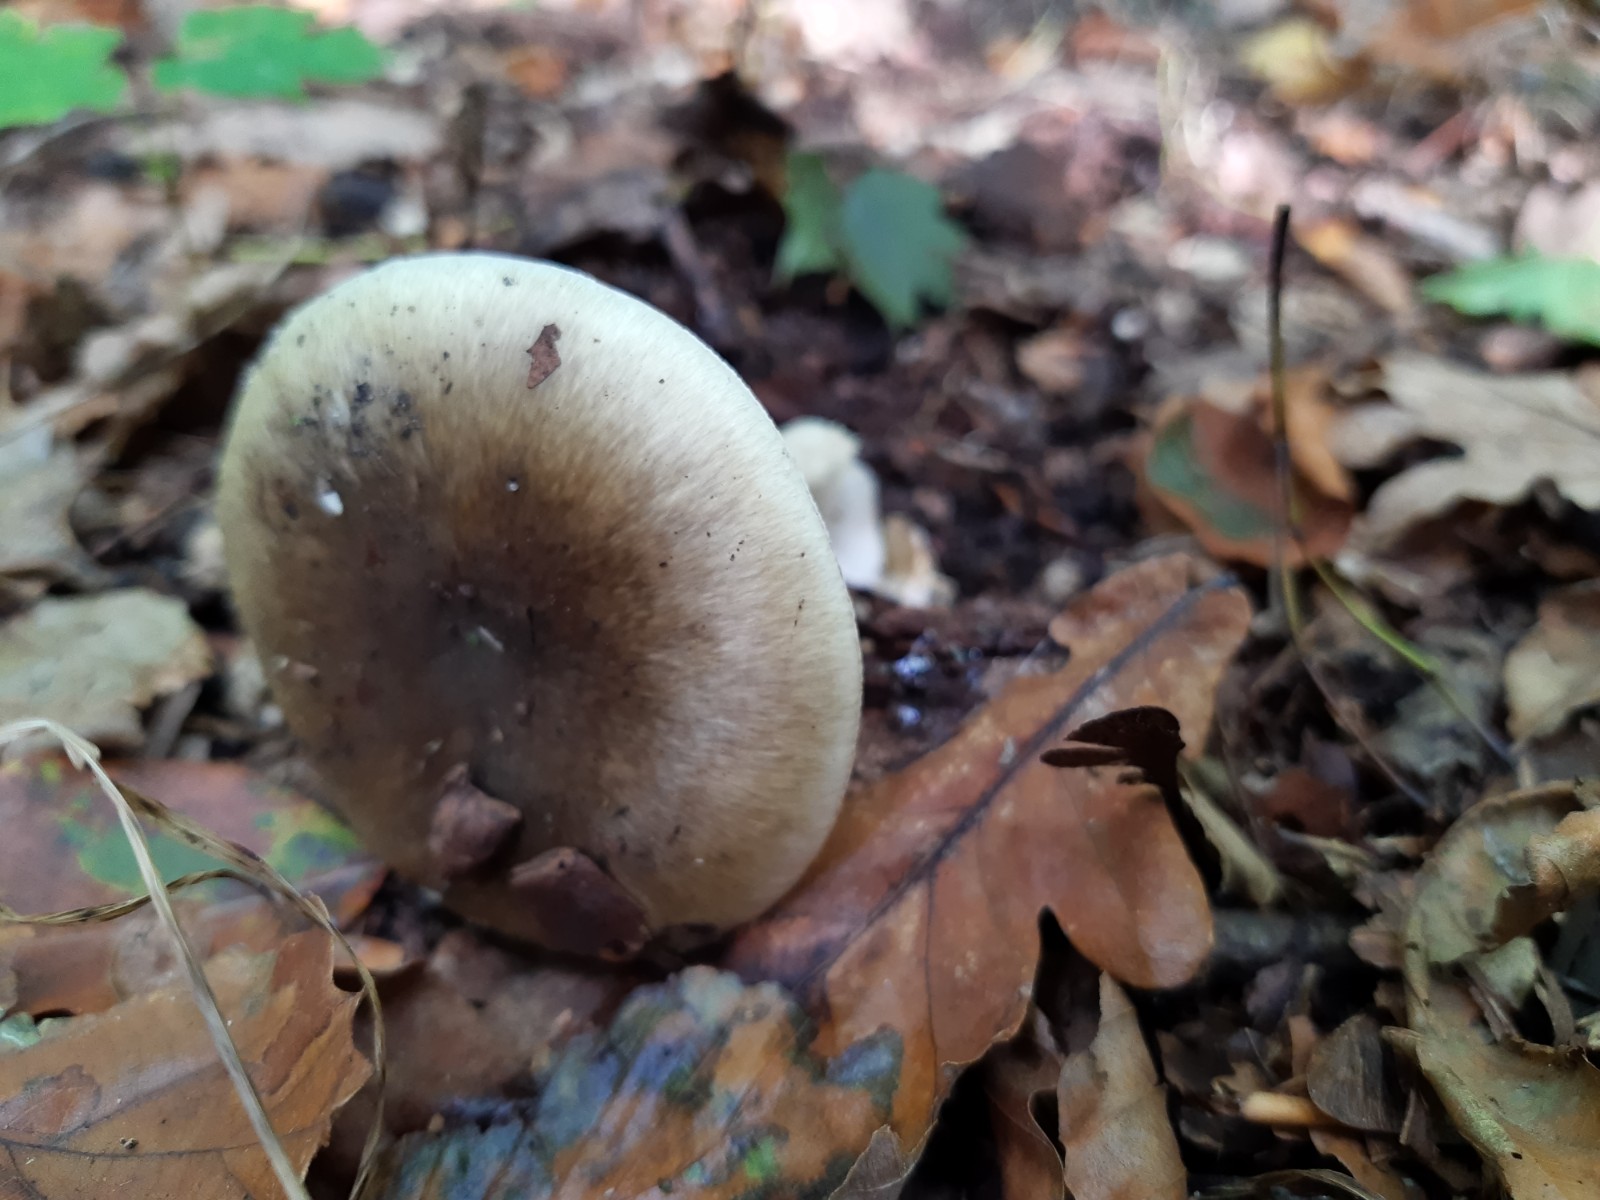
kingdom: Fungi
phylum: Basidiomycota
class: Agaricomycetes
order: Agaricales
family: Amanitaceae
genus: Amanita
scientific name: Amanita phalloides
